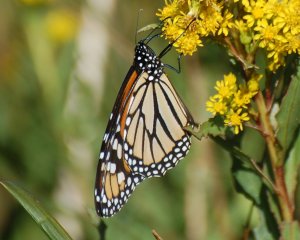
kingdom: Animalia
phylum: Arthropoda
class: Insecta
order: Lepidoptera
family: Nymphalidae
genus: Danaus
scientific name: Danaus plexippus
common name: Monarch
